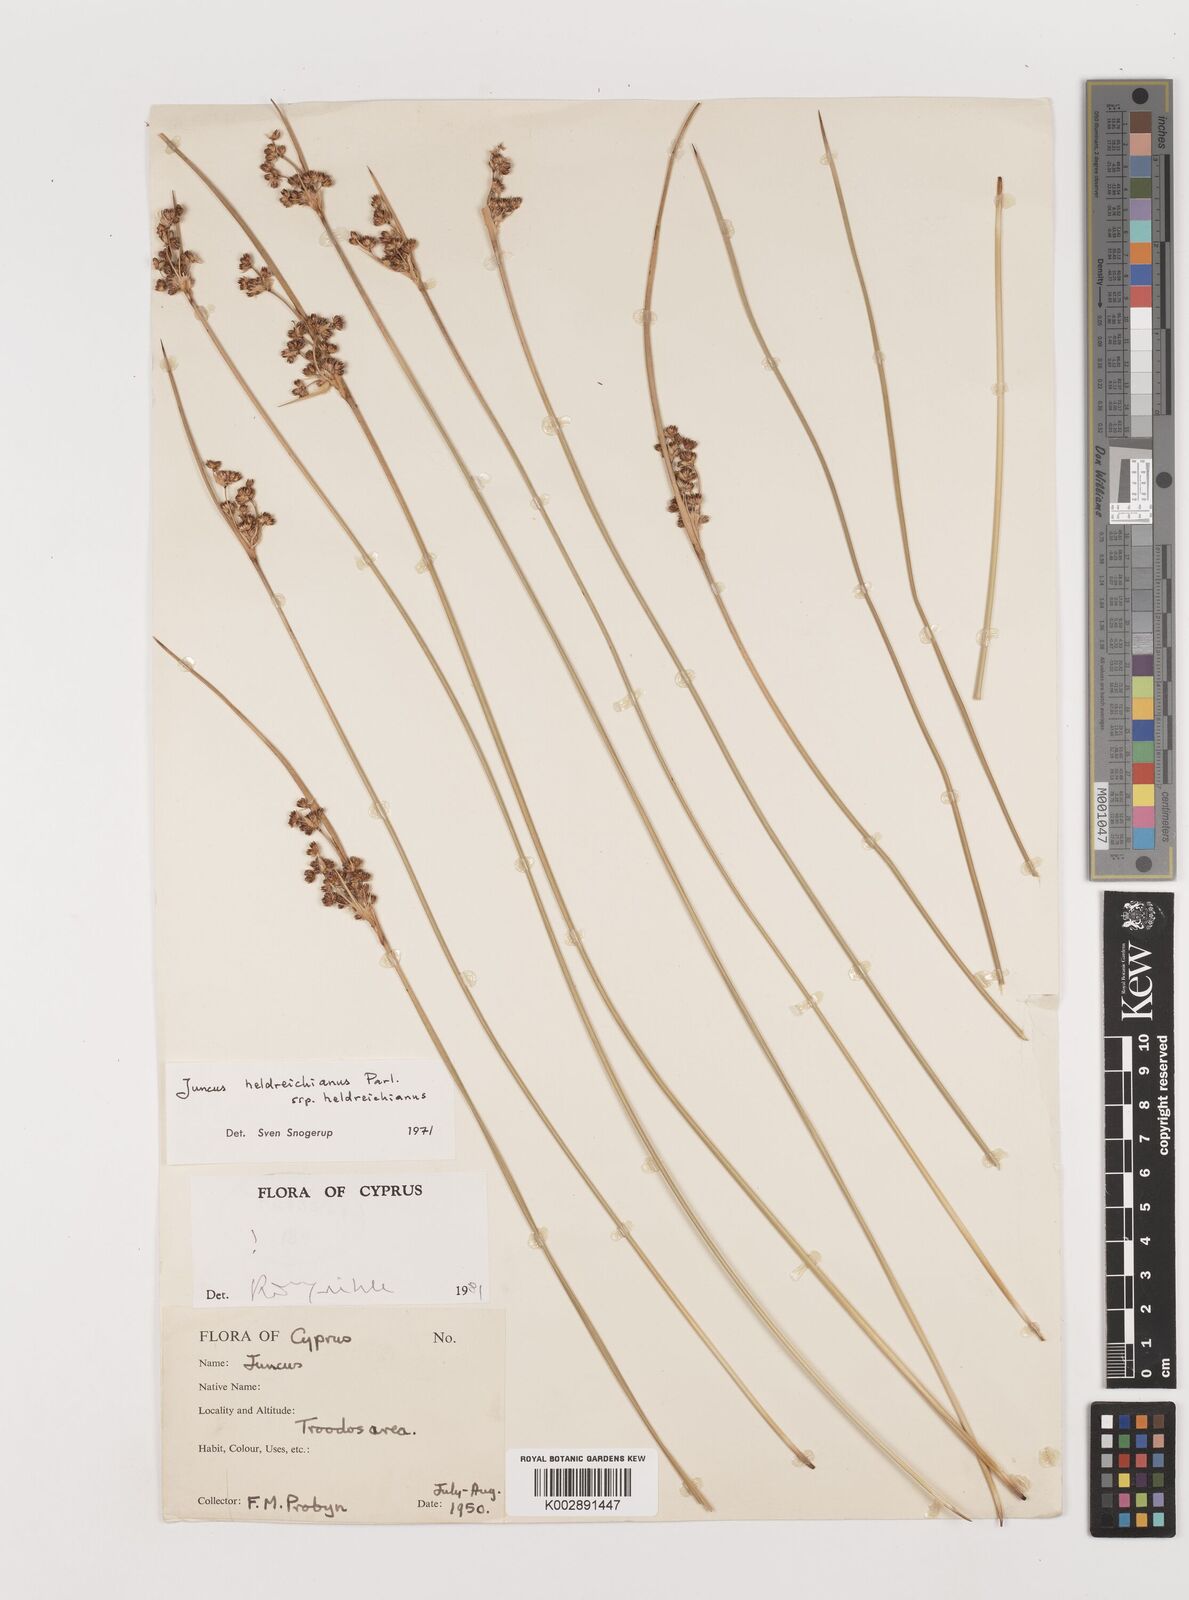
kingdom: Plantae
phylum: Tracheophyta
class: Liliopsida
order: Poales
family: Juncaceae
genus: Juncus
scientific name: Juncus heldreichianus
